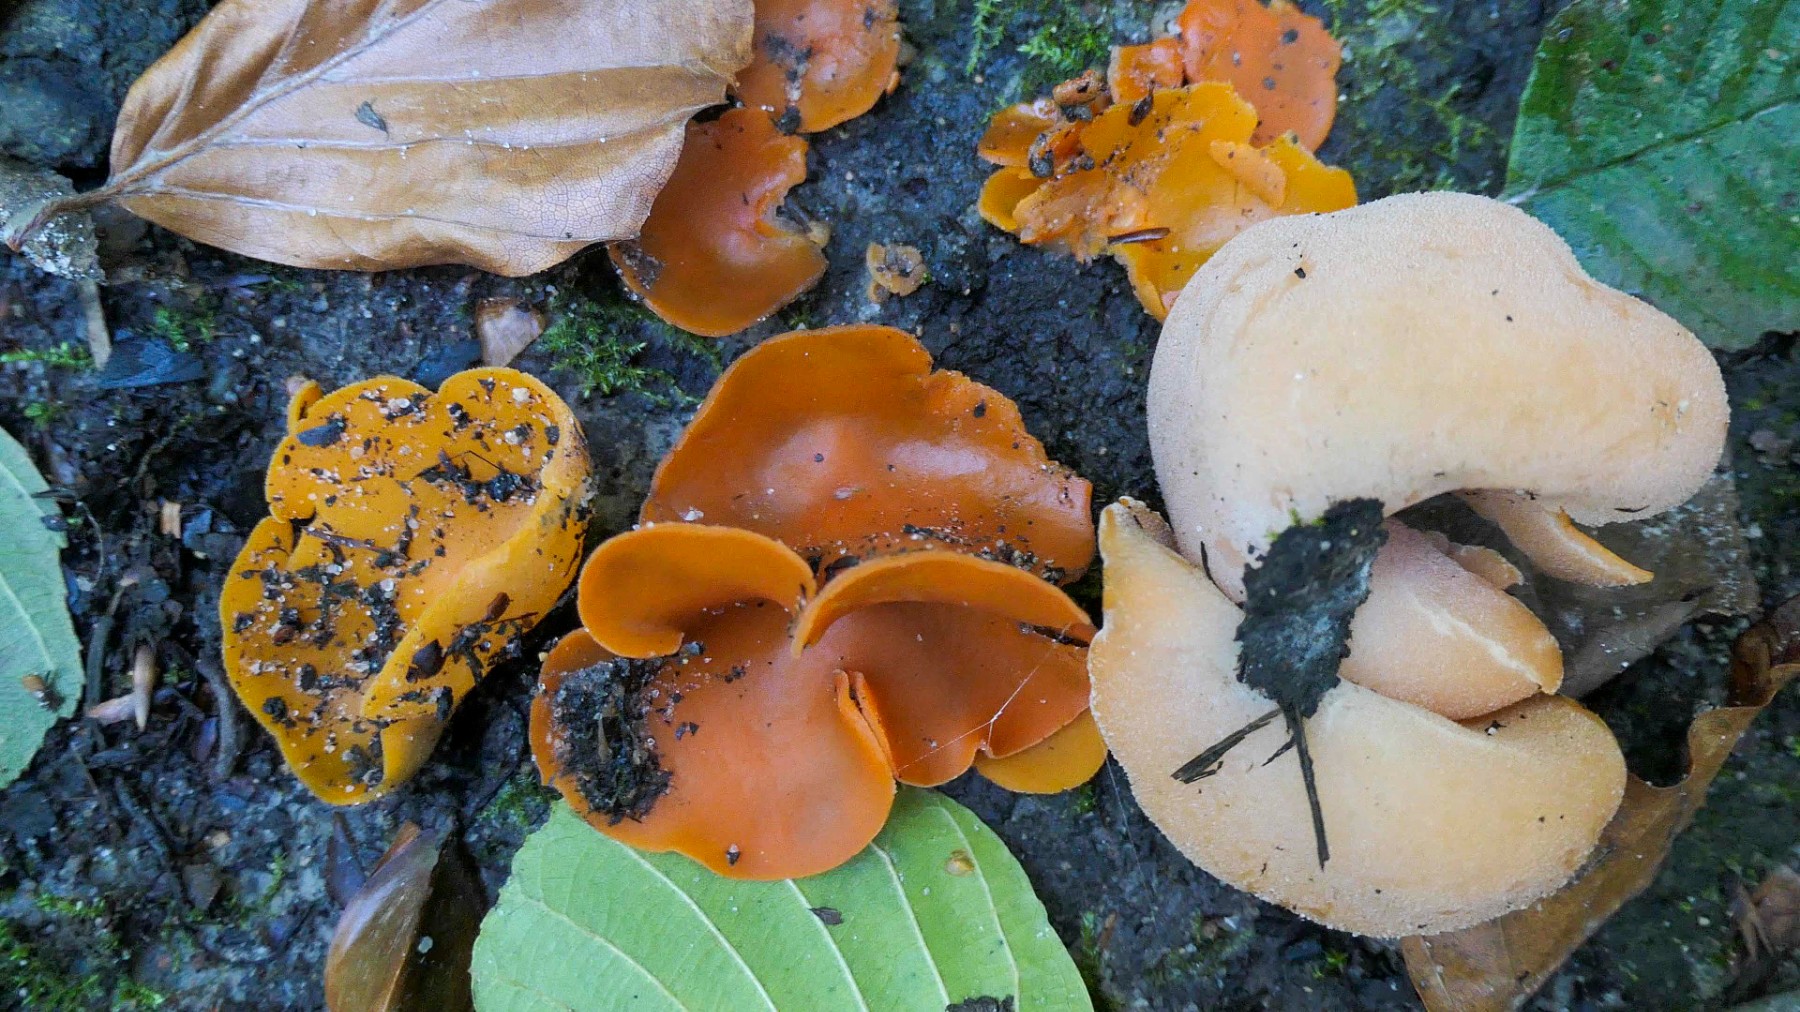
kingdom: Fungi
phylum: Ascomycota
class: Pezizomycetes
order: Pezizales
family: Pyronemataceae
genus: Aleuria
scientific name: Aleuria aurantia
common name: almindelig orangebæger
